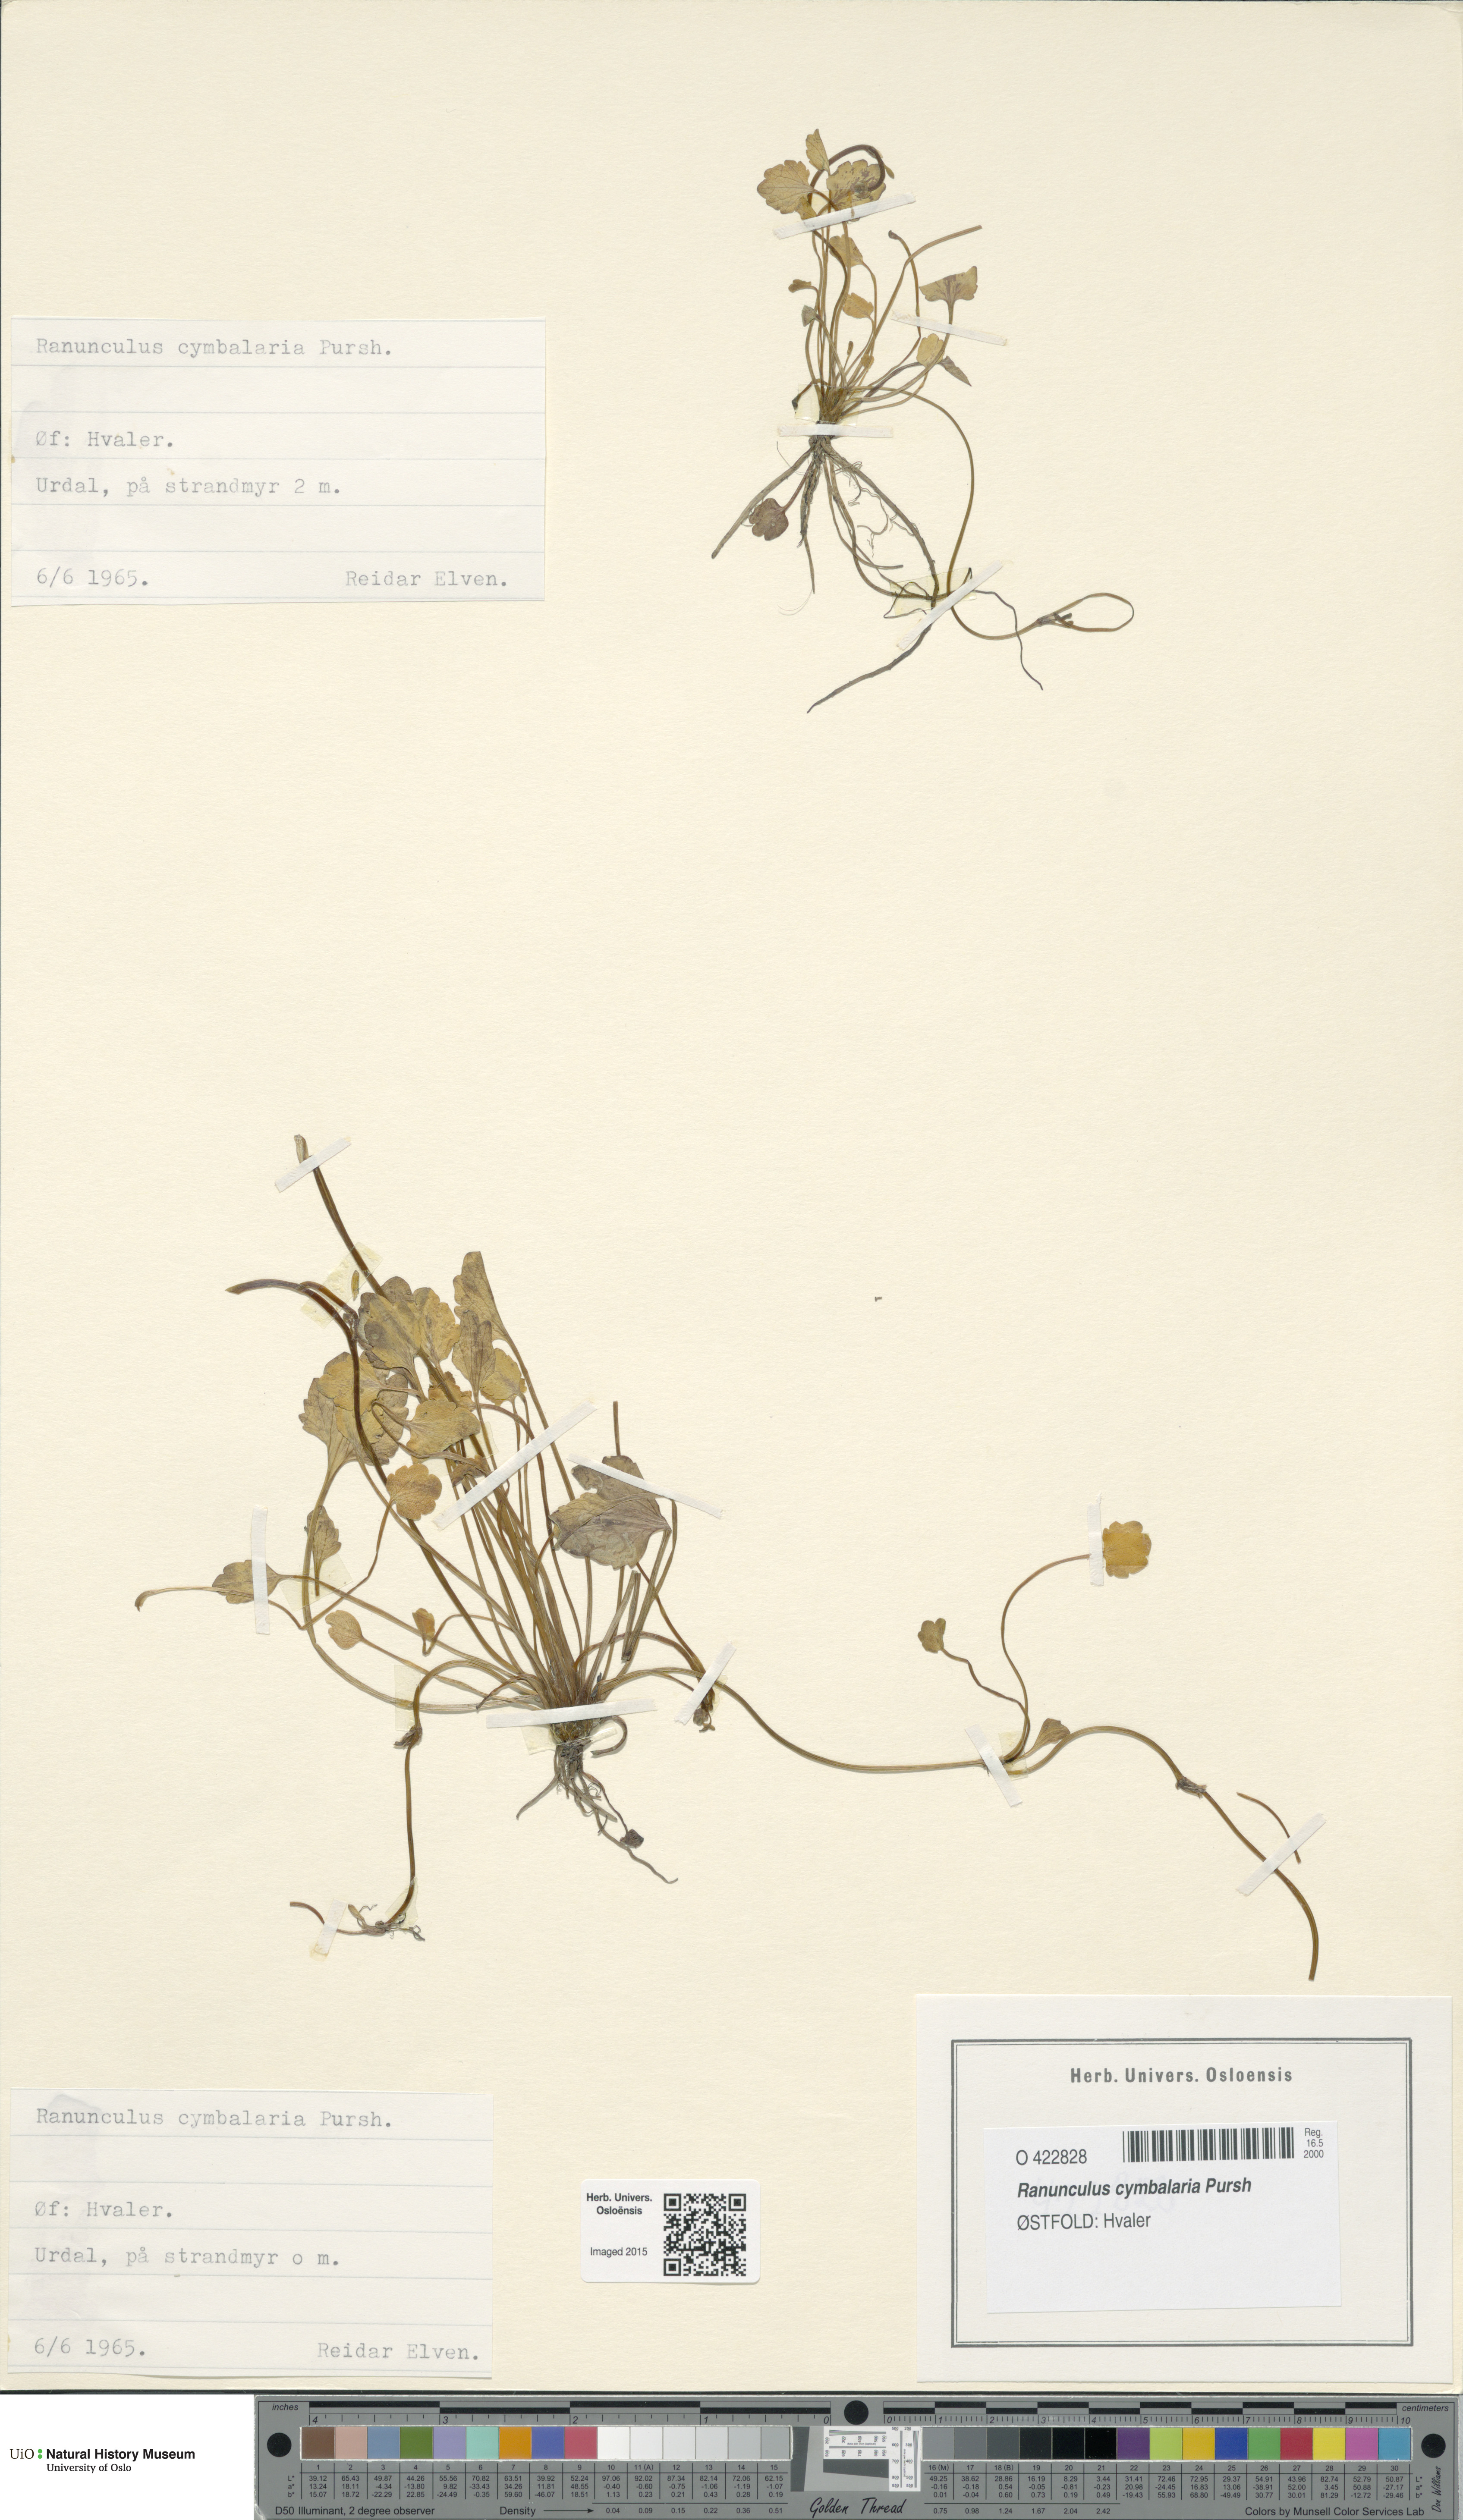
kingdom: Plantae
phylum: Tracheophyta
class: Magnoliopsida
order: Ranunculales
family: Ranunculaceae
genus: Halerpestes
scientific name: Halerpestes cymbalaria
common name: Seaside crowfoot
